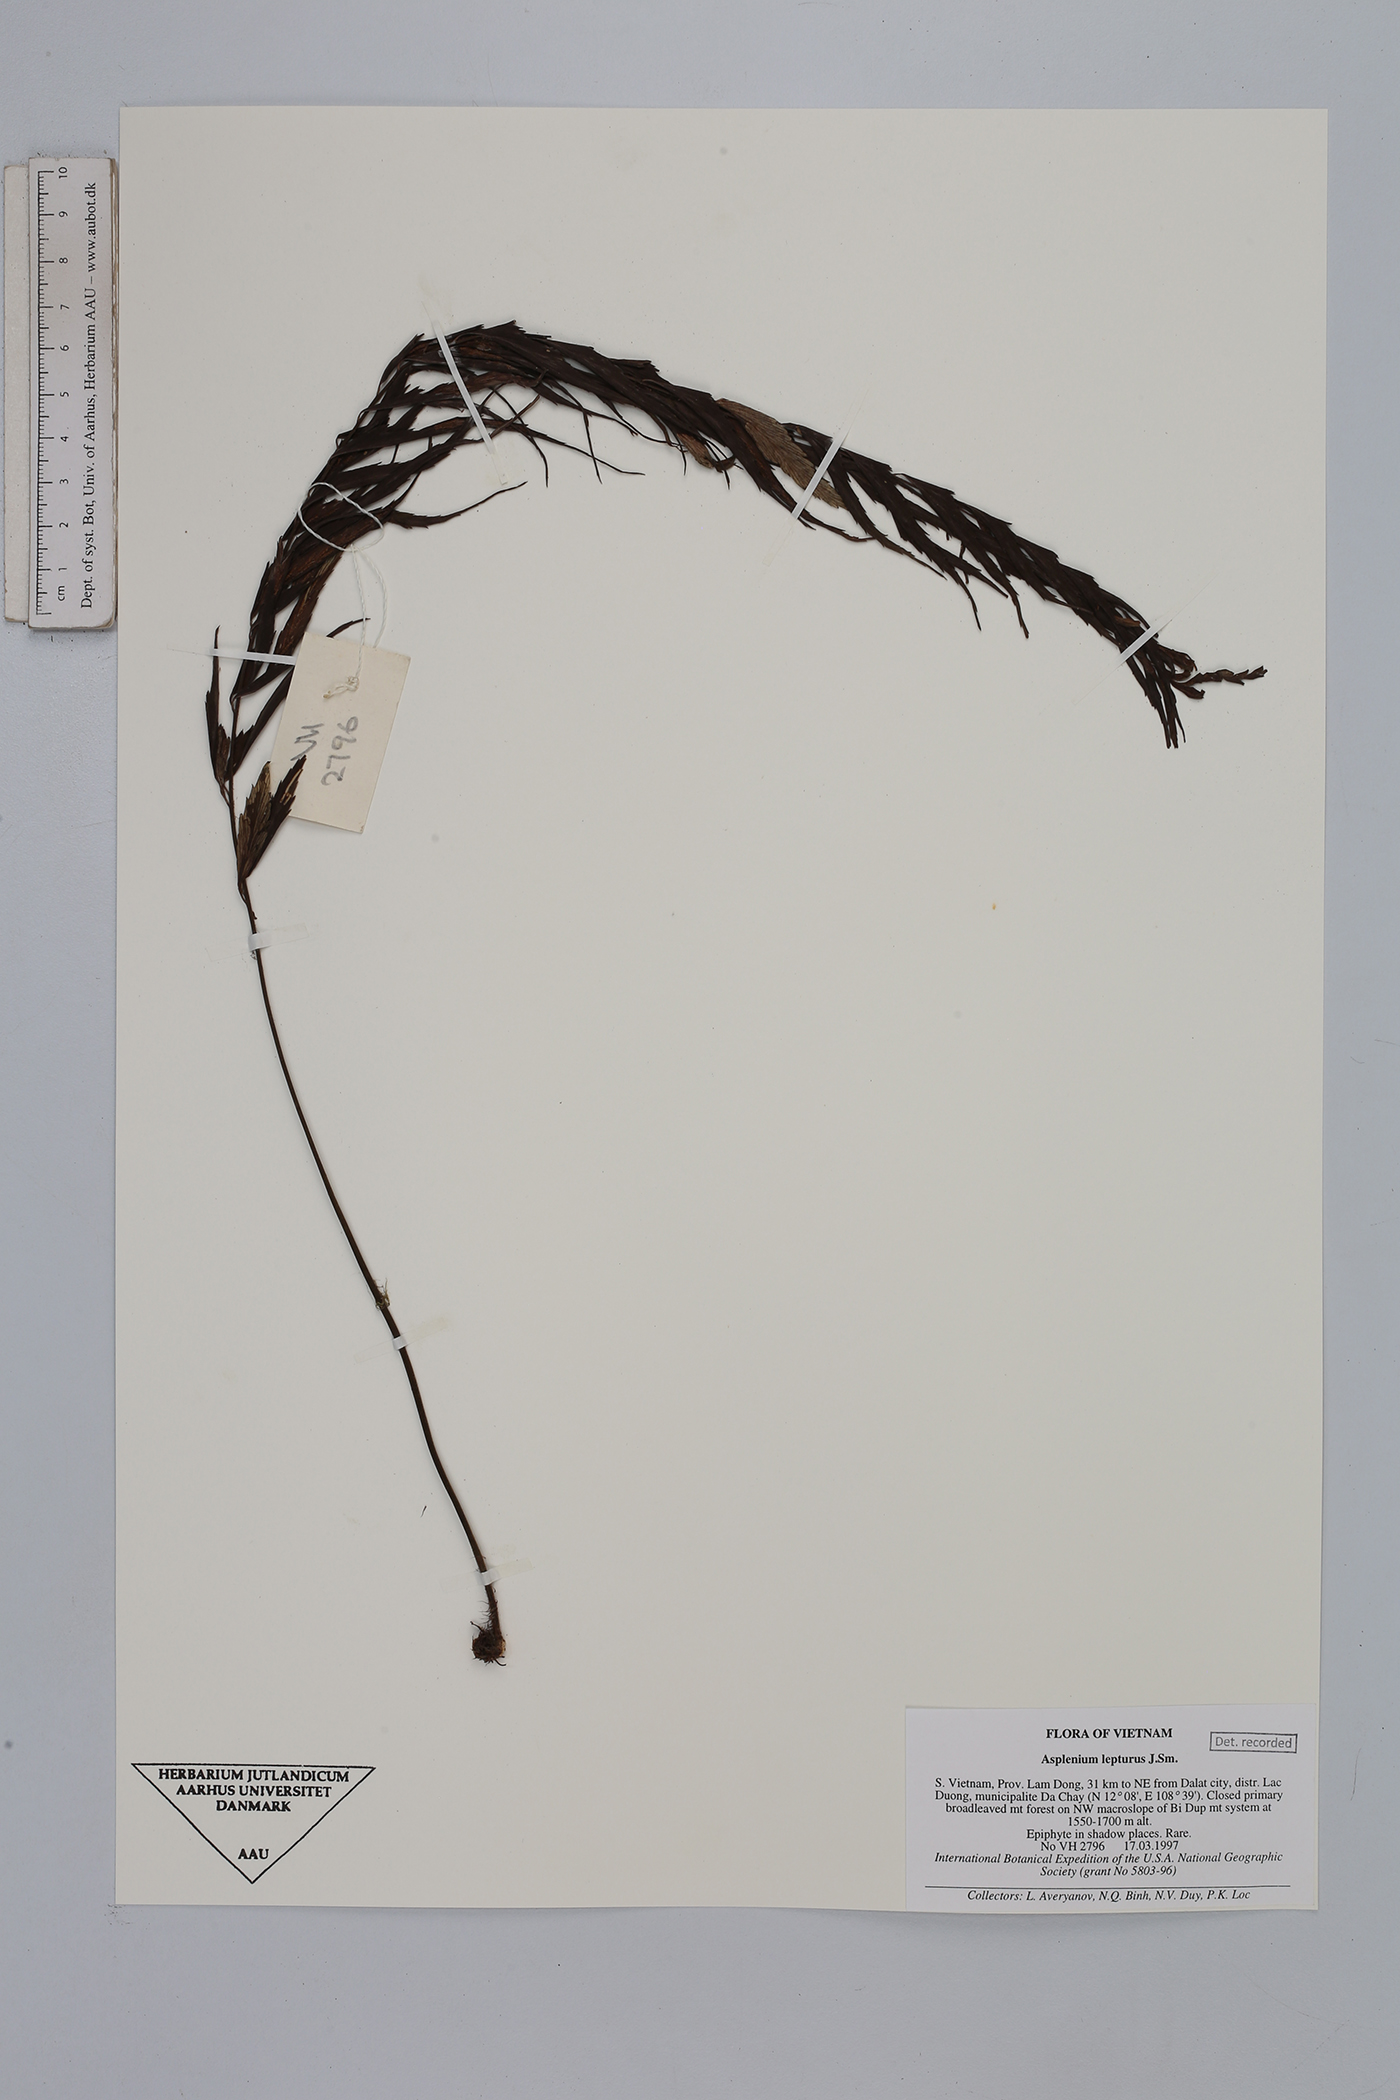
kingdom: Plantae
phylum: Tracheophyta
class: Polypodiopsida
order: Polypodiales
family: Aspleniaceae
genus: Asplenium
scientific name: Asplenium lepturus
